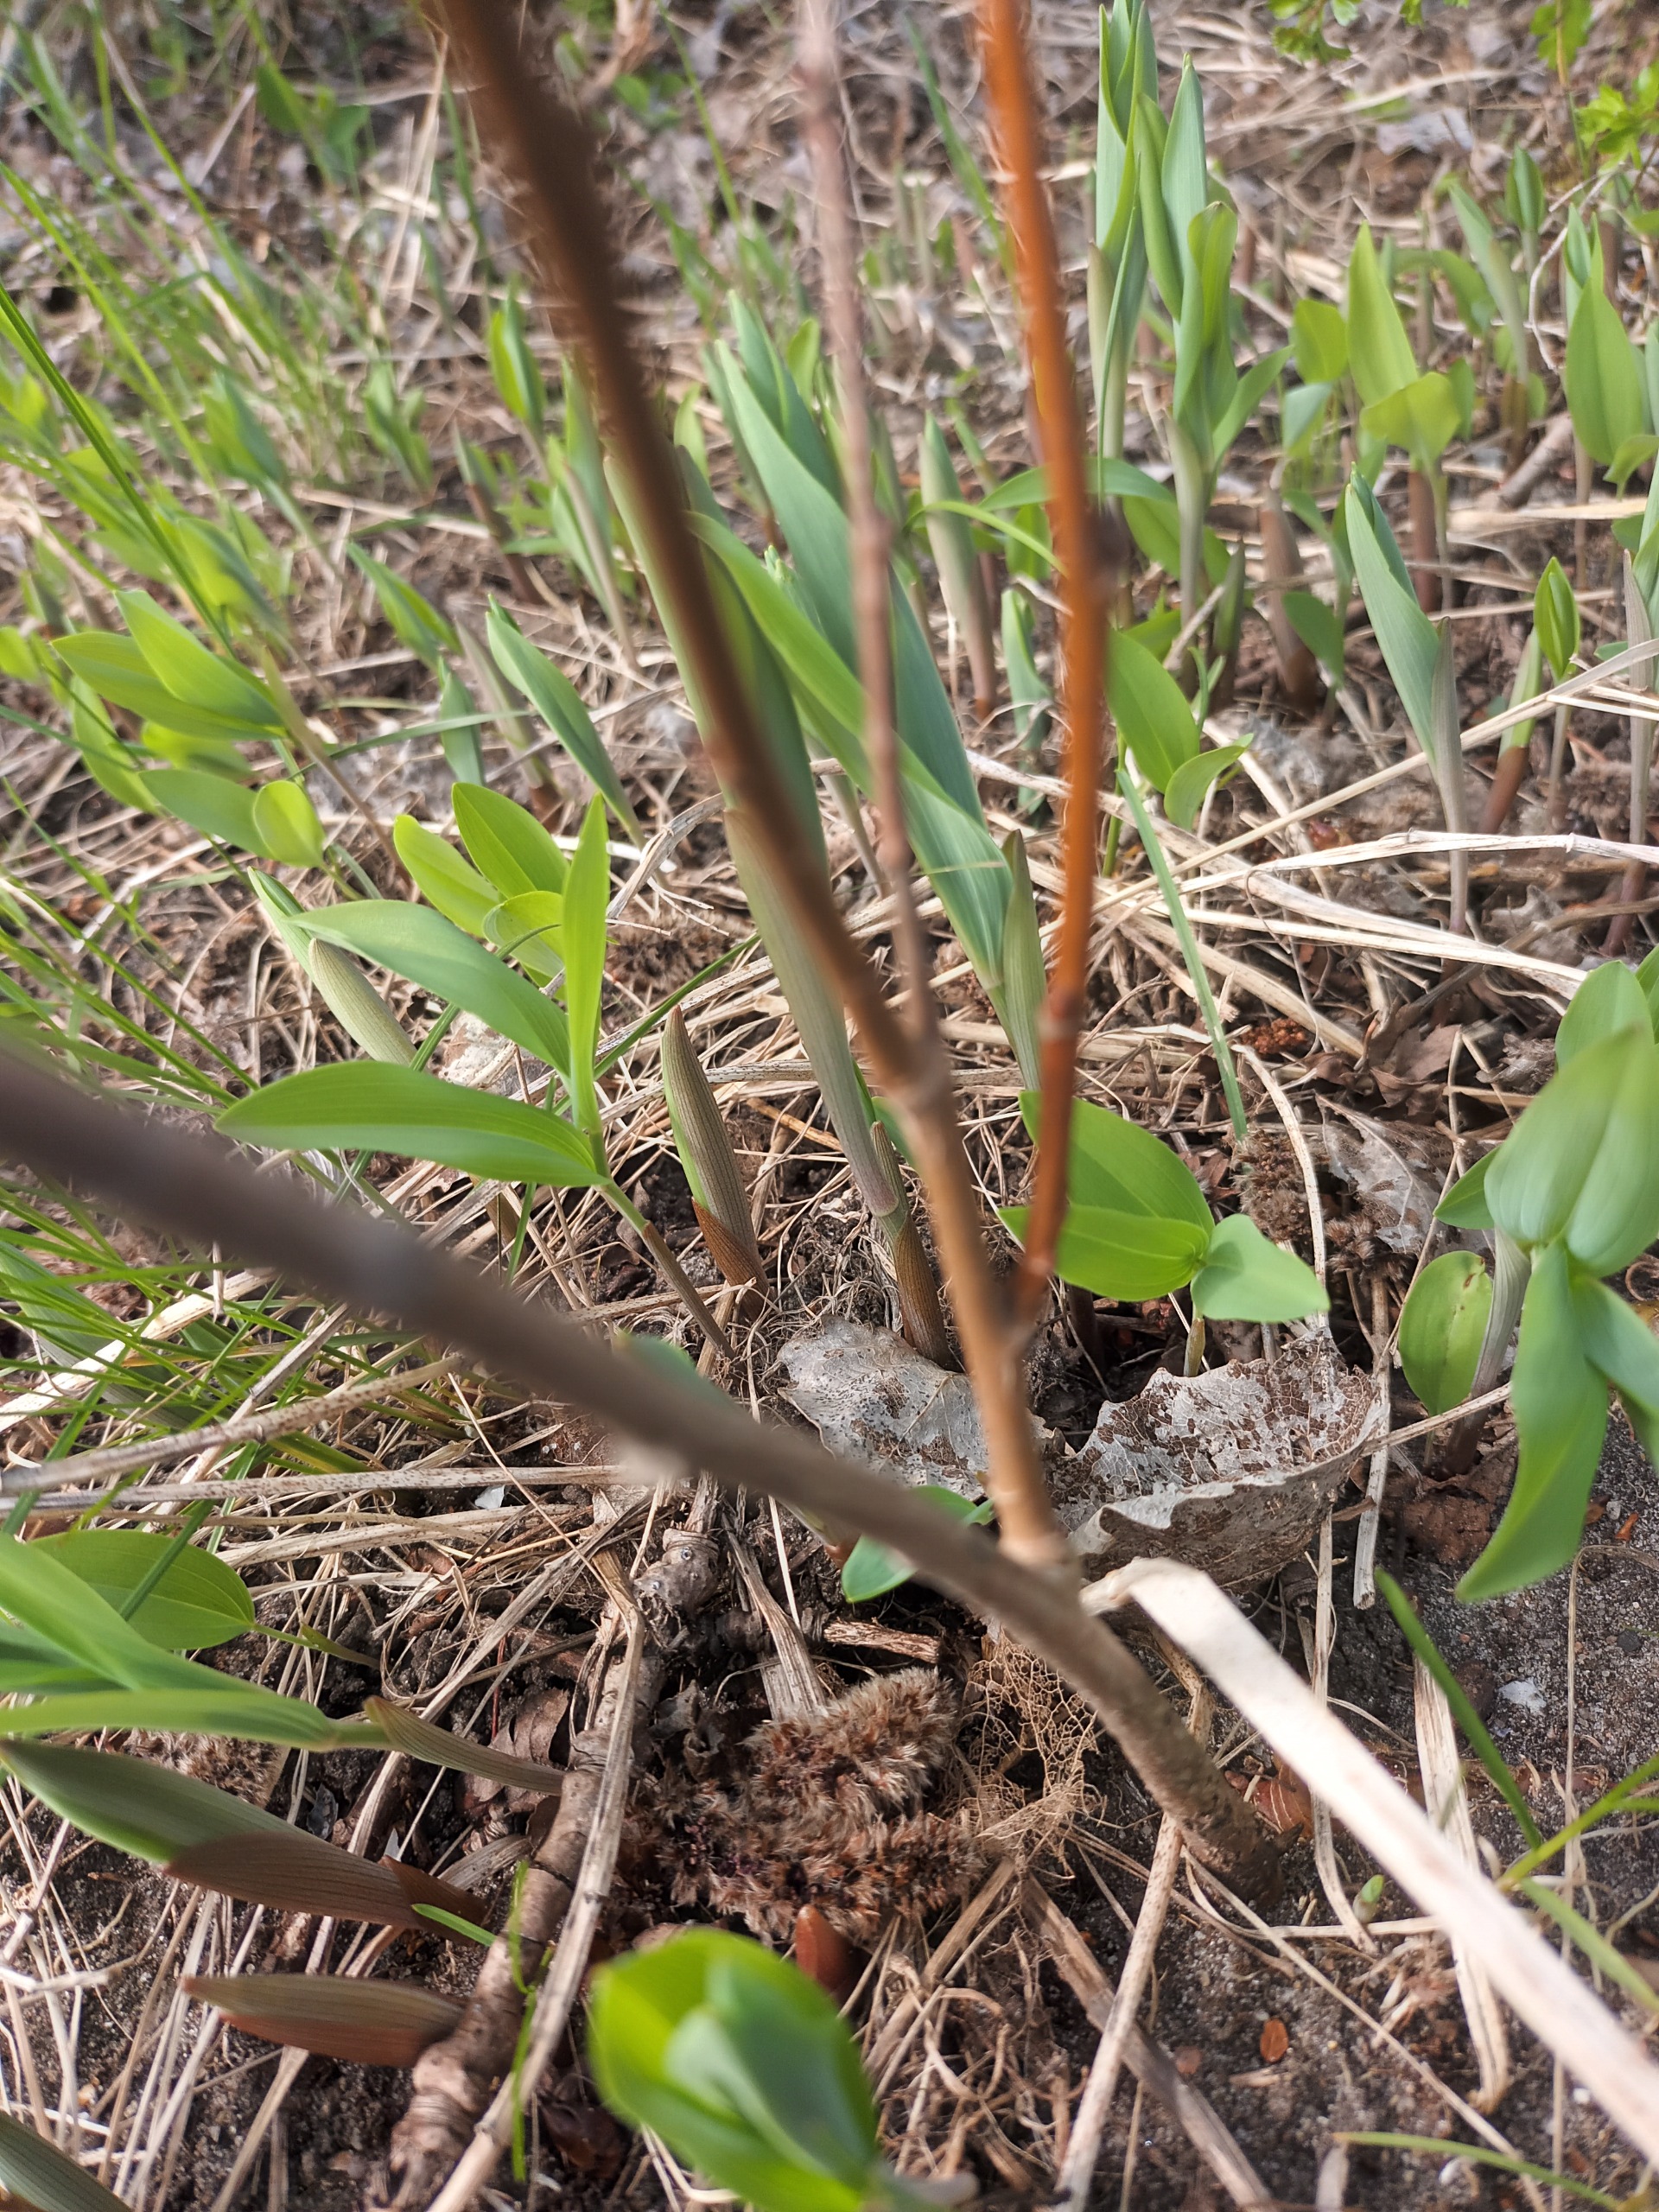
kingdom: Plantae
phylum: Tracheophyta
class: Liliopsida
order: Asparagales
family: Asparagaceae
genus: Polygonatum
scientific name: Polygonatum odoratum
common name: Kantet konval
